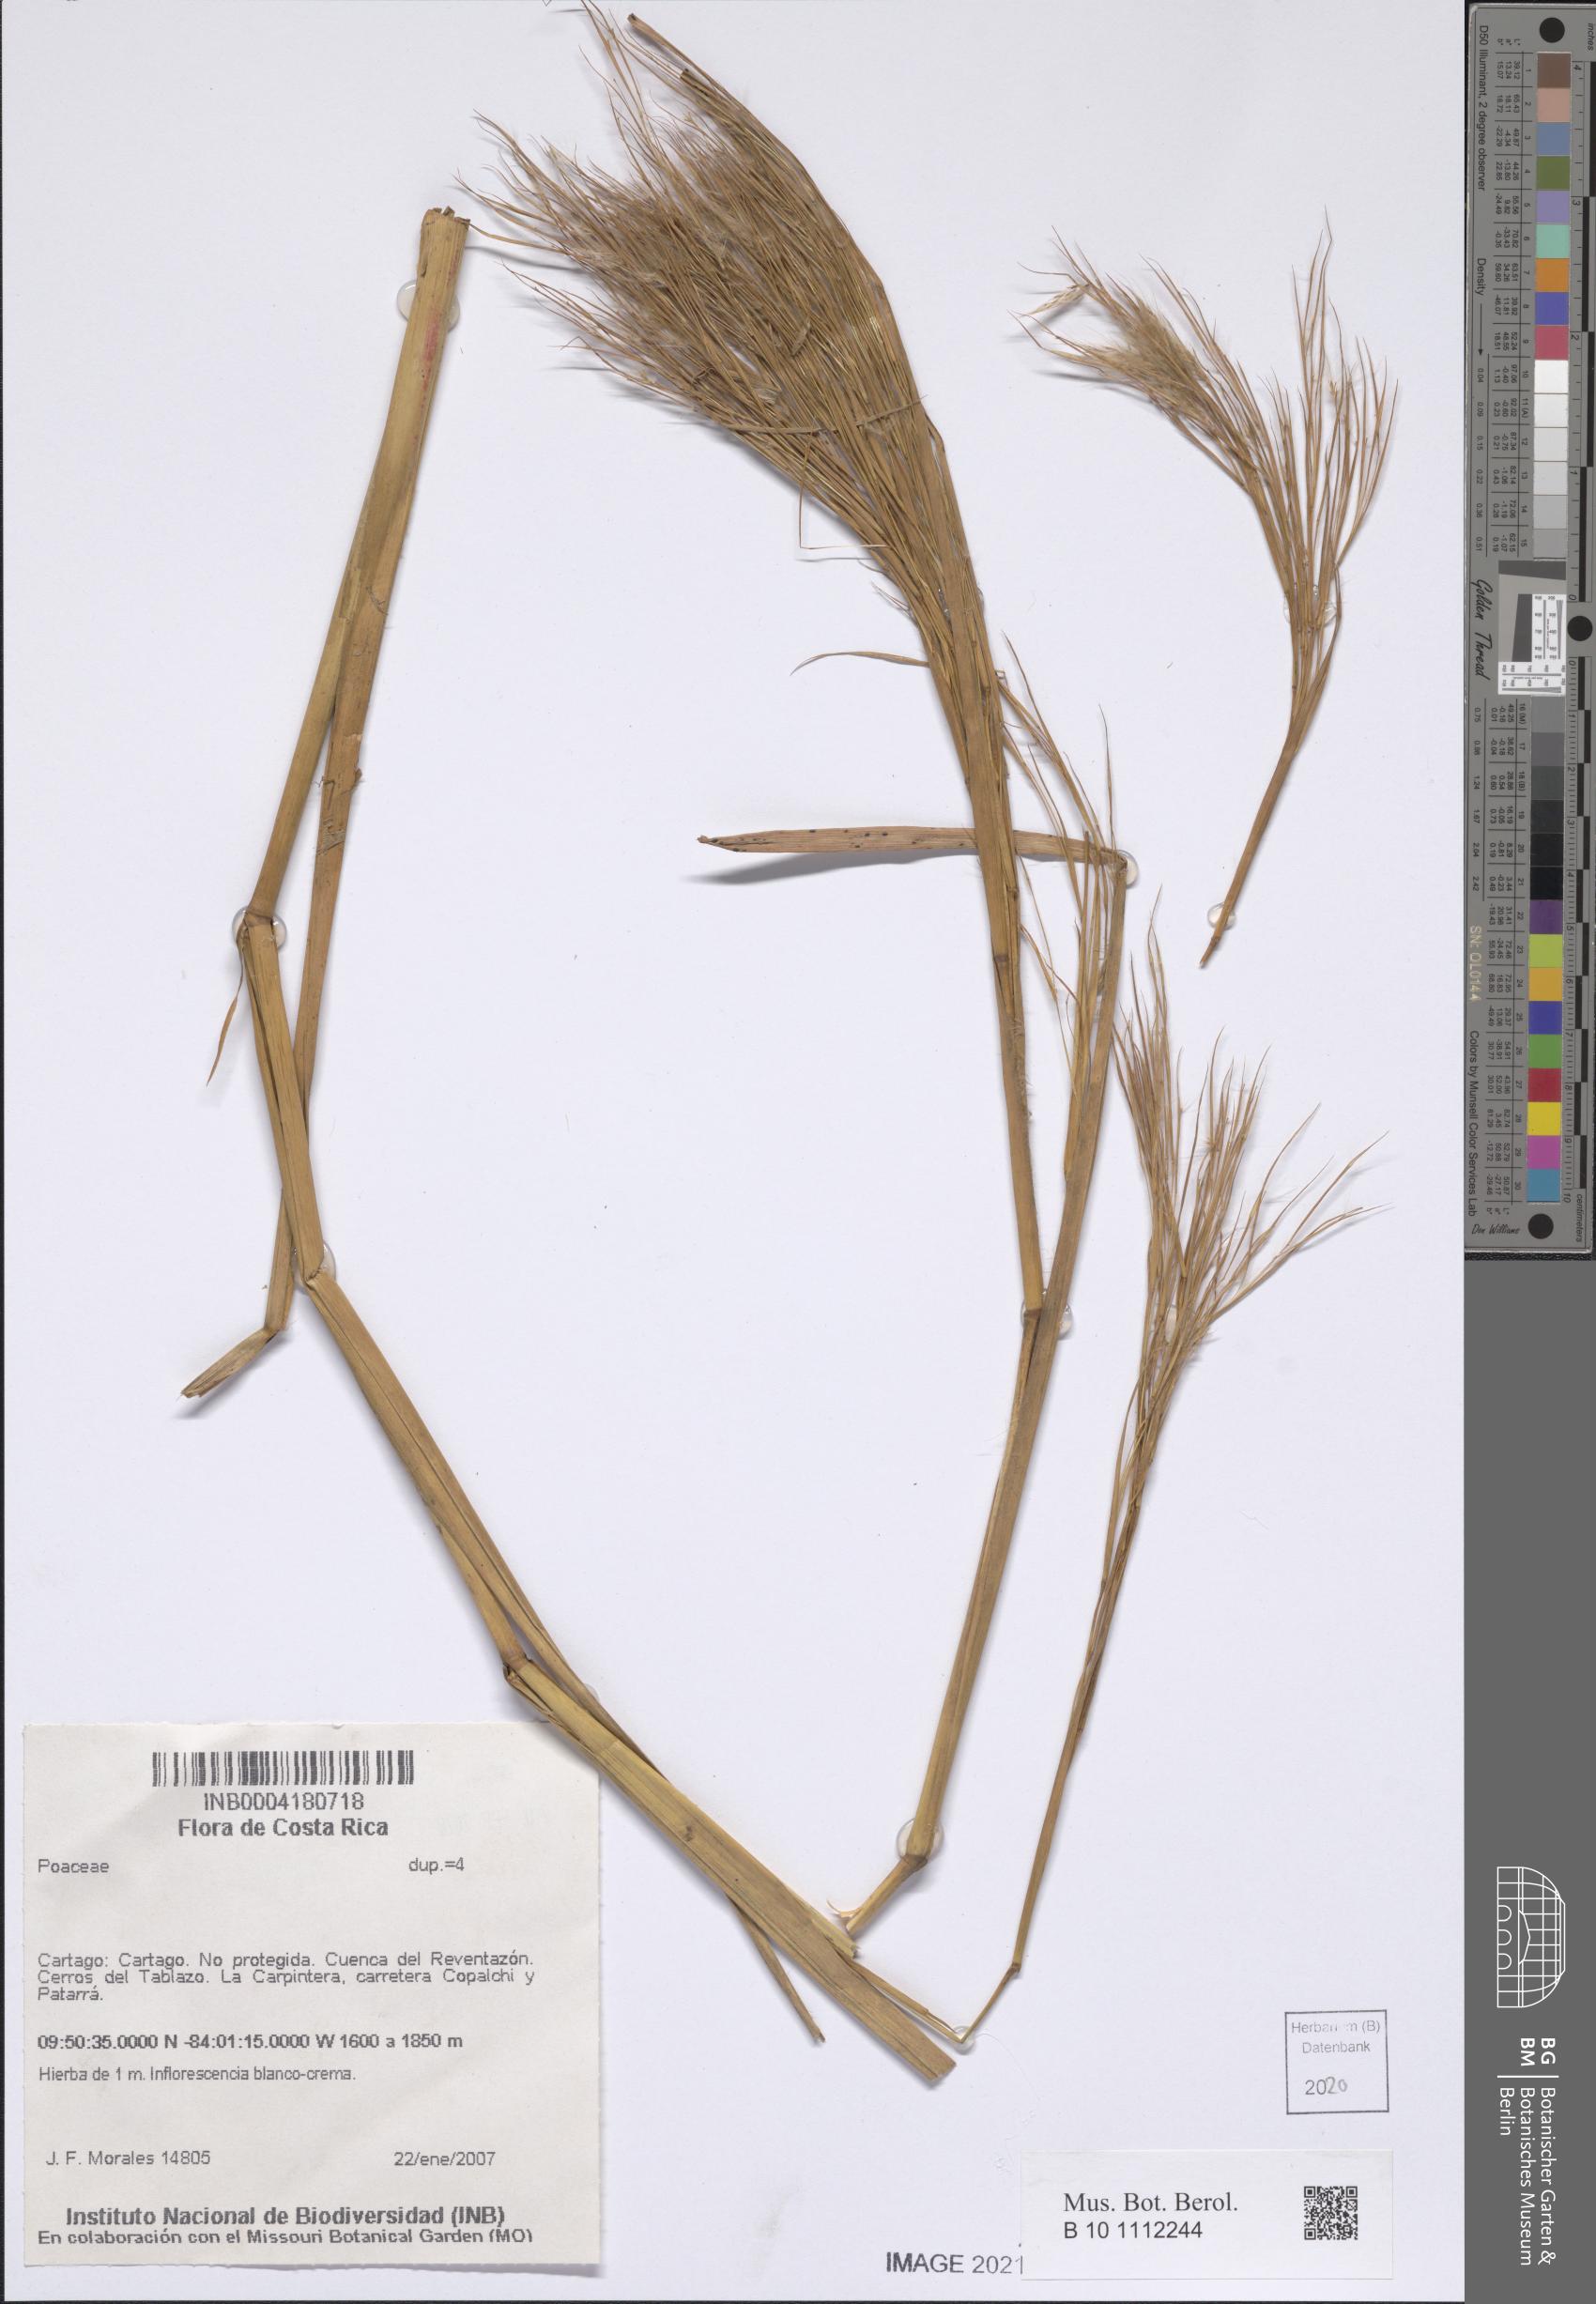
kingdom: Plantae
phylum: Tracheophyta
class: Liliopsida
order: Poales
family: Poaceae
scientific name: Poaceae
